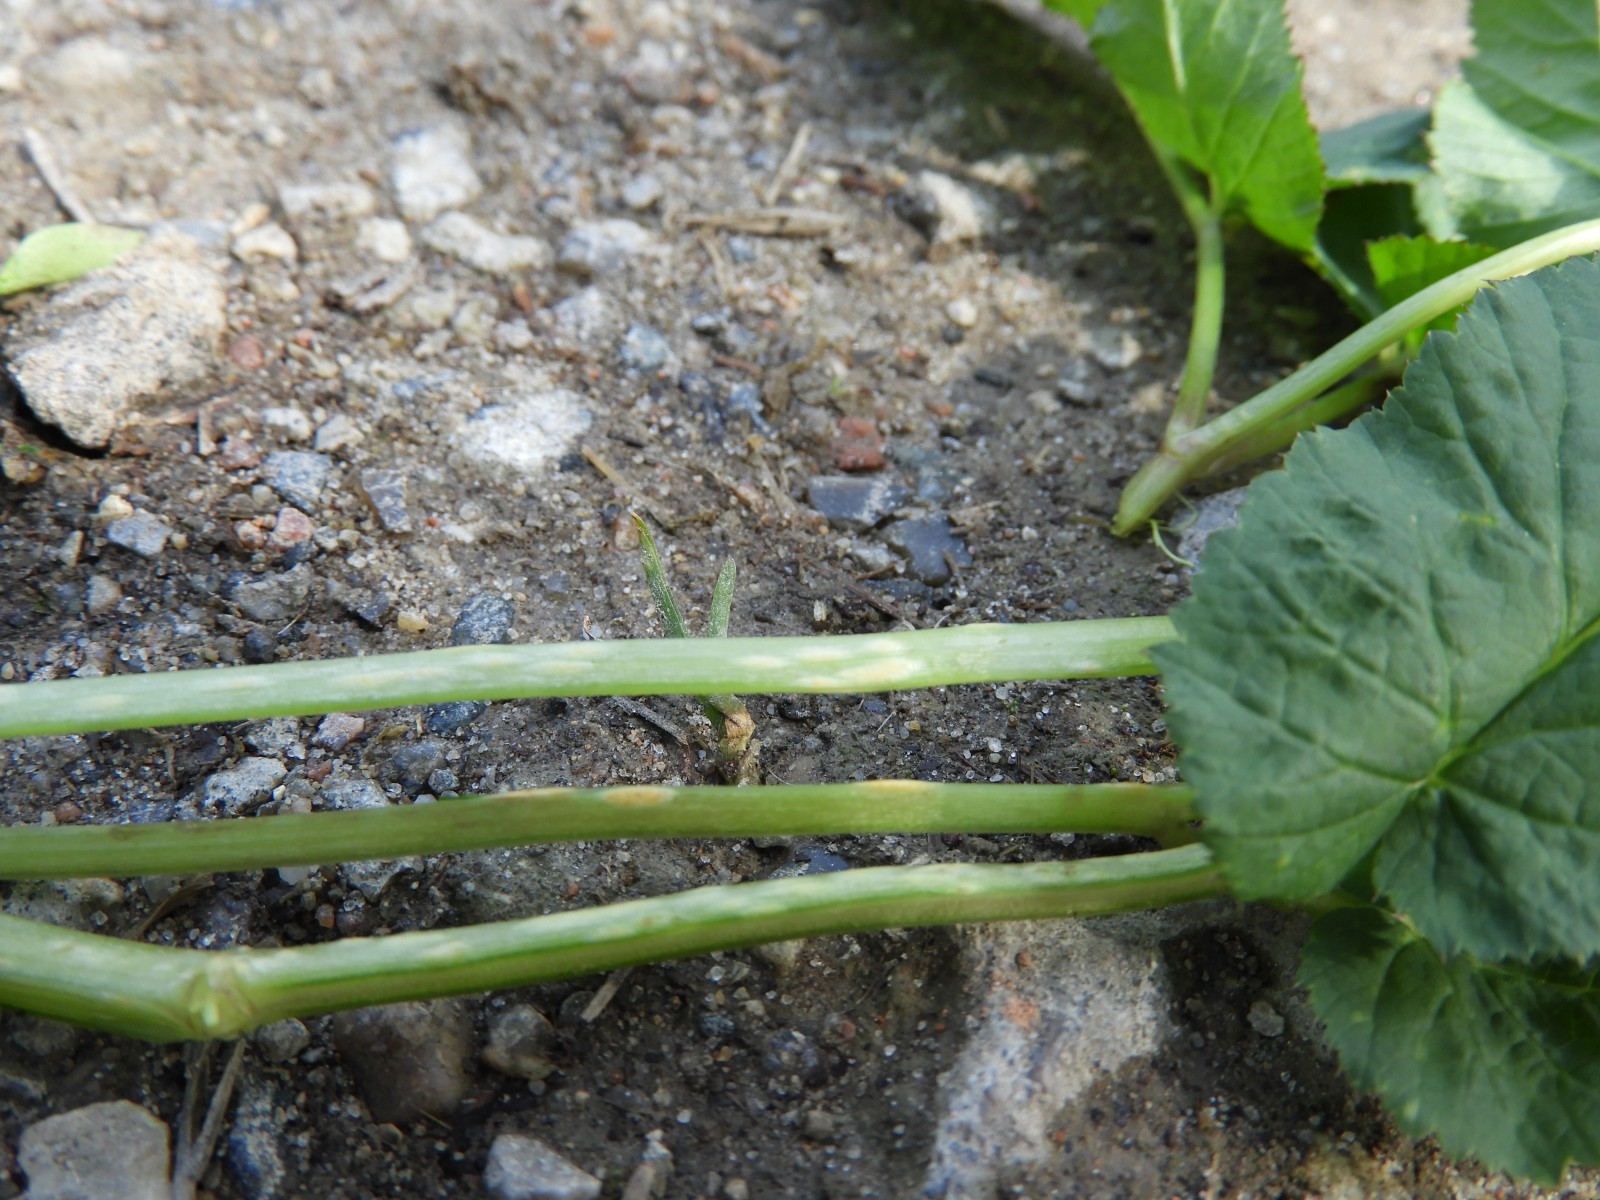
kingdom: Fungi
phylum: Ascomycota
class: Taphrinomycetes
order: Taphrinales
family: Taphrinaceae
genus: Protomyces
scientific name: Protomyces macrosporus
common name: skvalderkål-vablesæk
